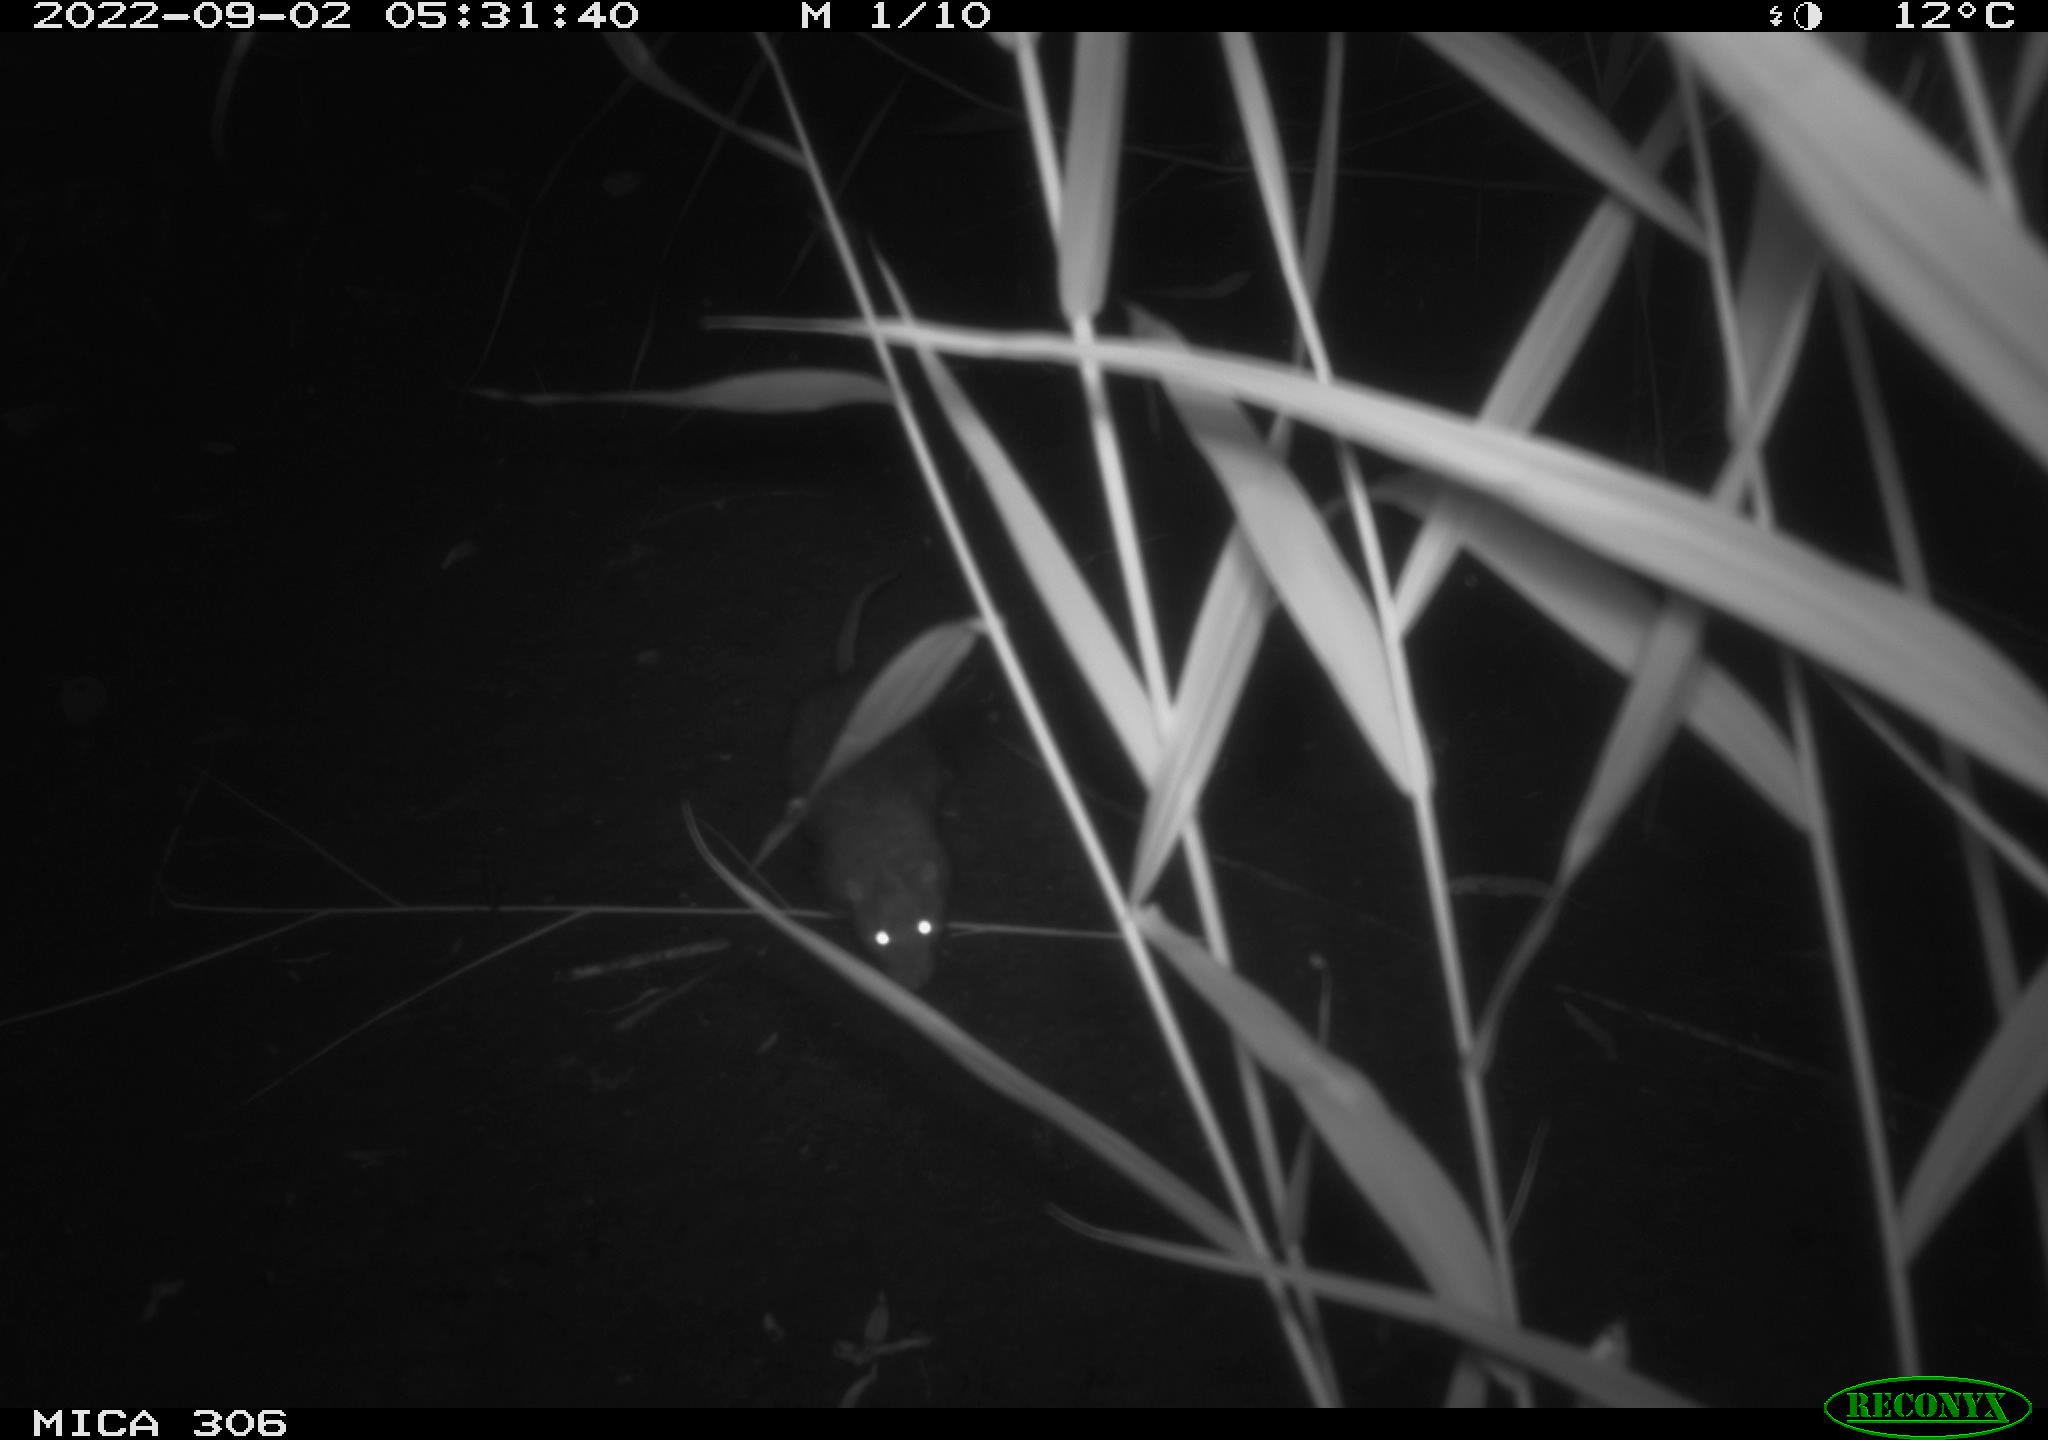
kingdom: Animalia
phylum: Chordata
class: Mammalia
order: Rodentia
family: Muridae
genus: Rattus
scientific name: Rattus norvegicus
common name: Brown rat
